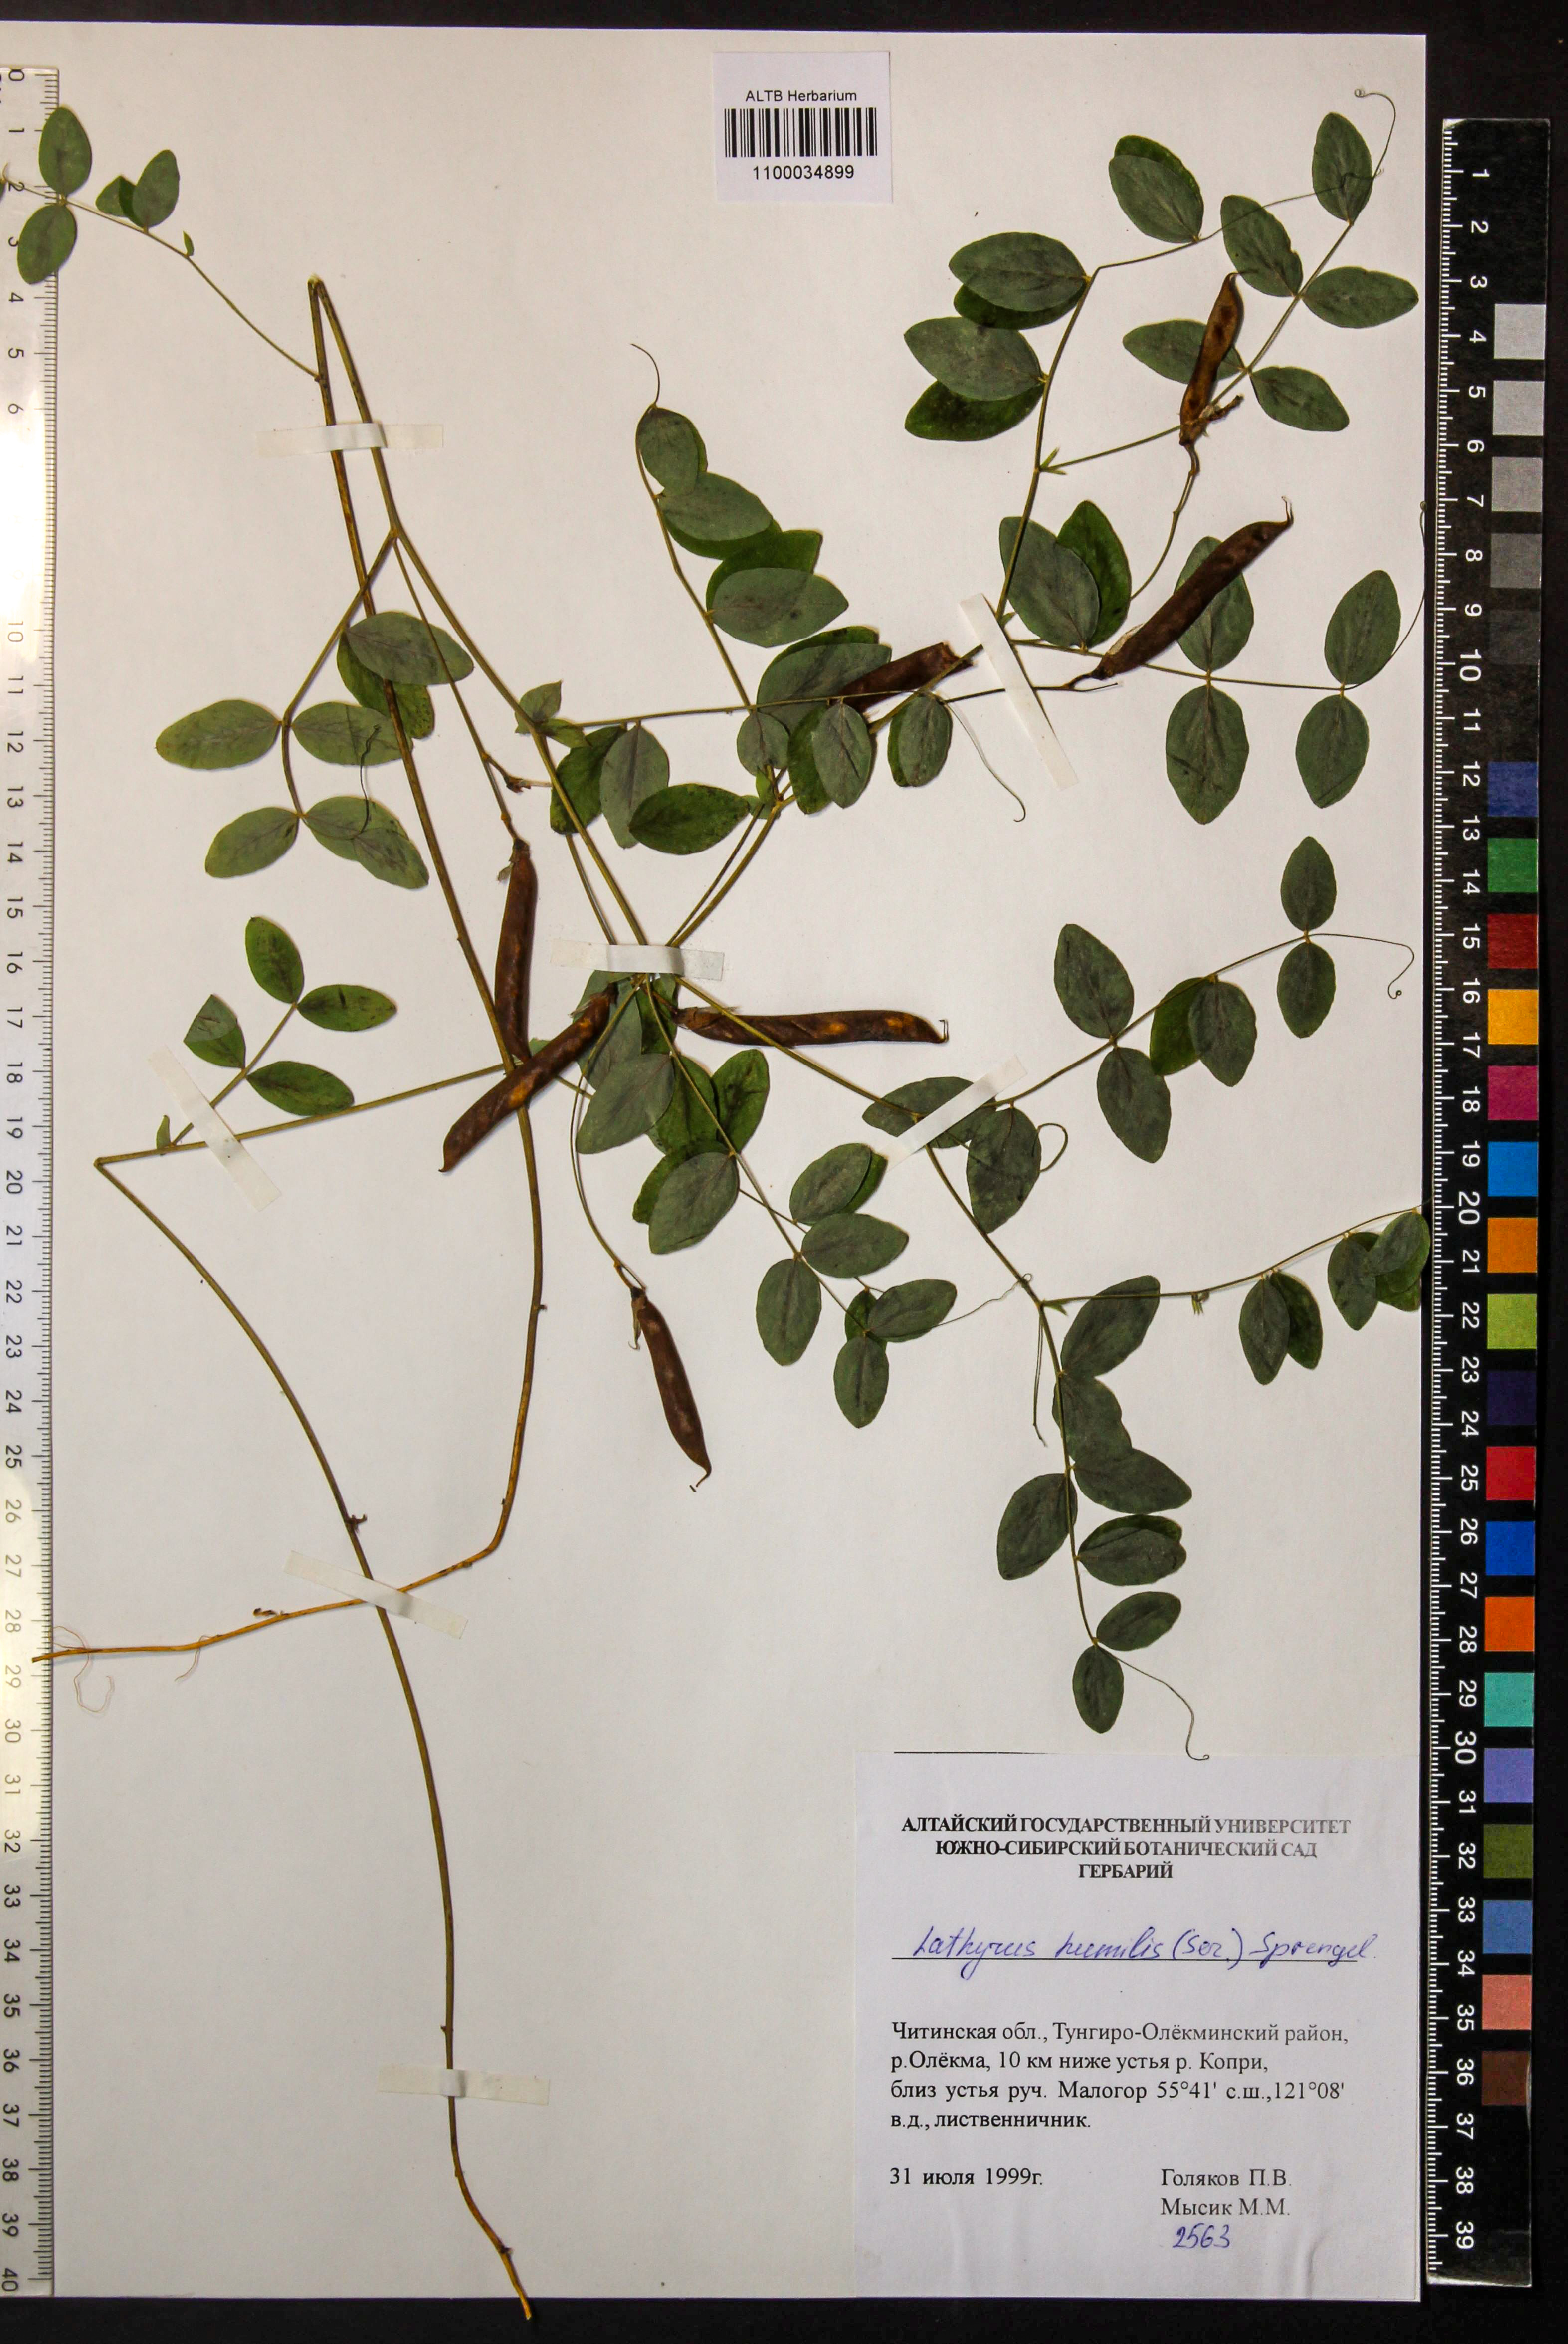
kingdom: Plantae
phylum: Tracheophyta
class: Magnoliopsida
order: Fabales
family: Fabaceae
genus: Lathyrus
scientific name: Lathyrus humilis
